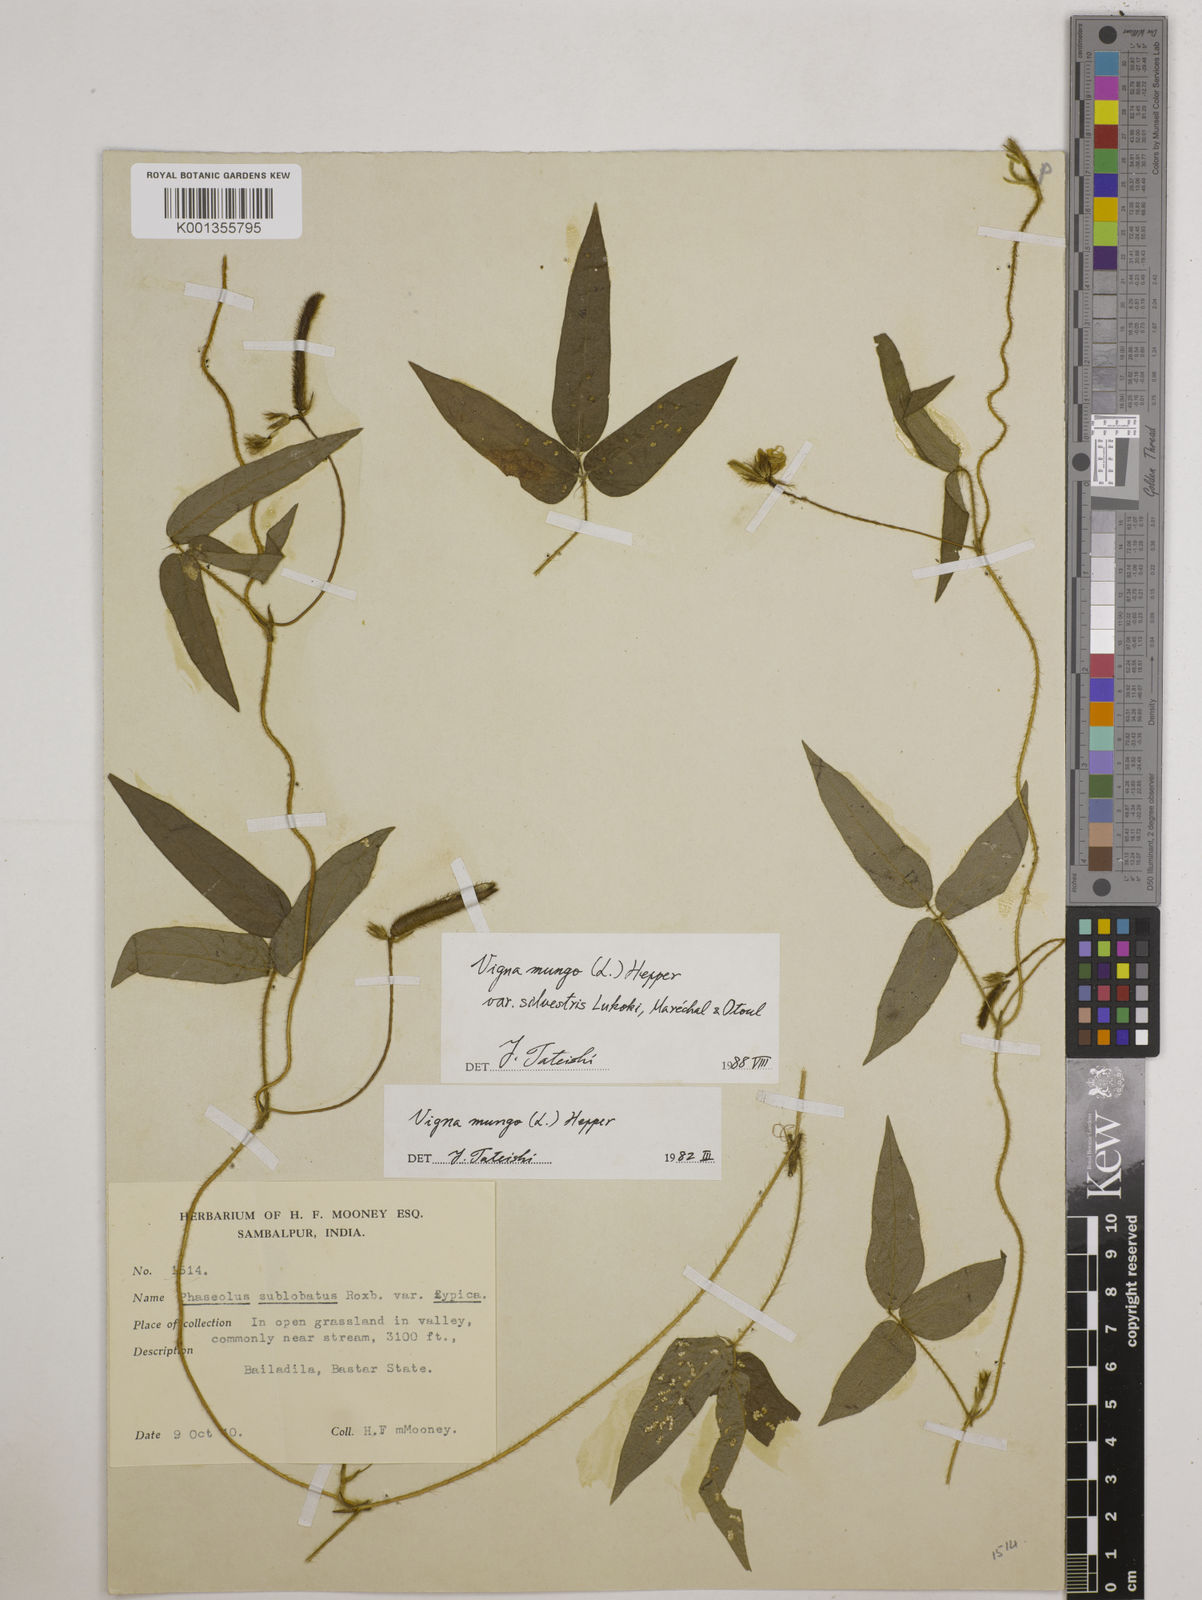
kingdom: Plantae
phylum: Tracheophyta
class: Magnoliopsida
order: Fabales
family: Fabaceae
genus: Vigna
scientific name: Vigna mungo
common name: Black gram
